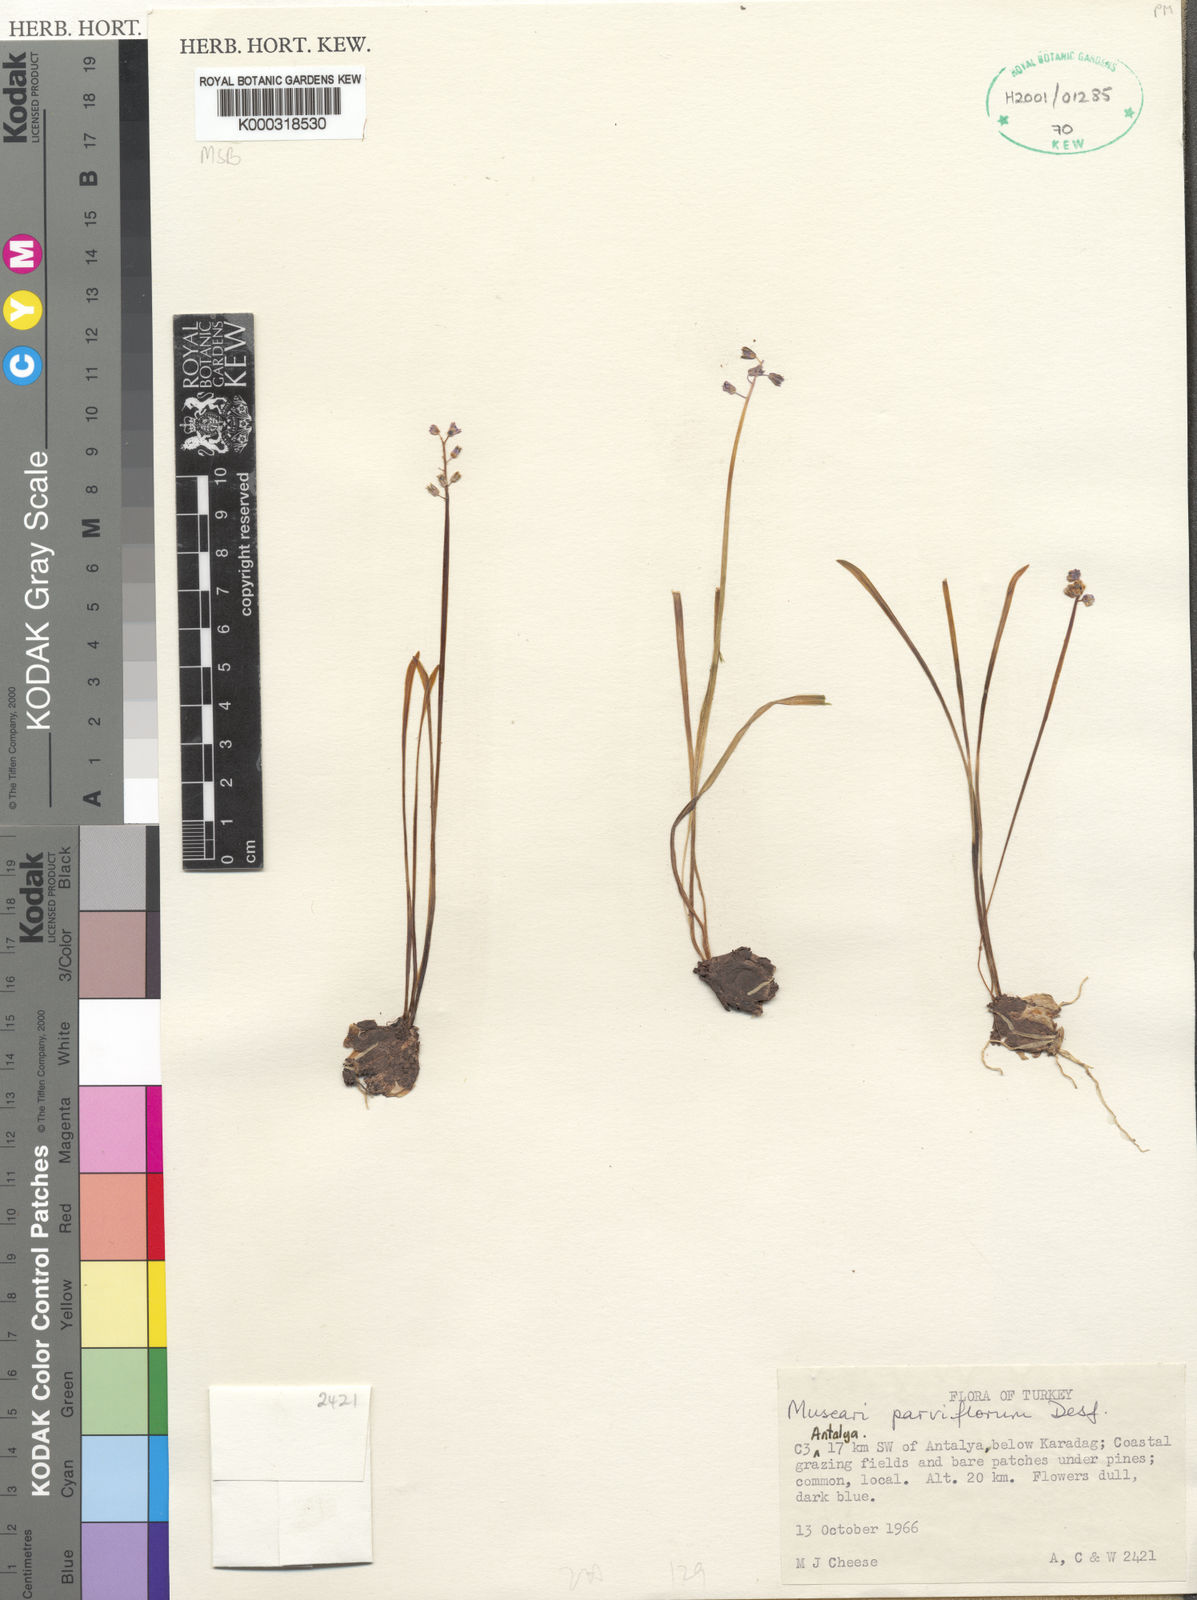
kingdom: Plantae
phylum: Tracheophyta
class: Liliopsida
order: Asparagales
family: Asparagaceae
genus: Muscari
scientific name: Muscari parviflorum
